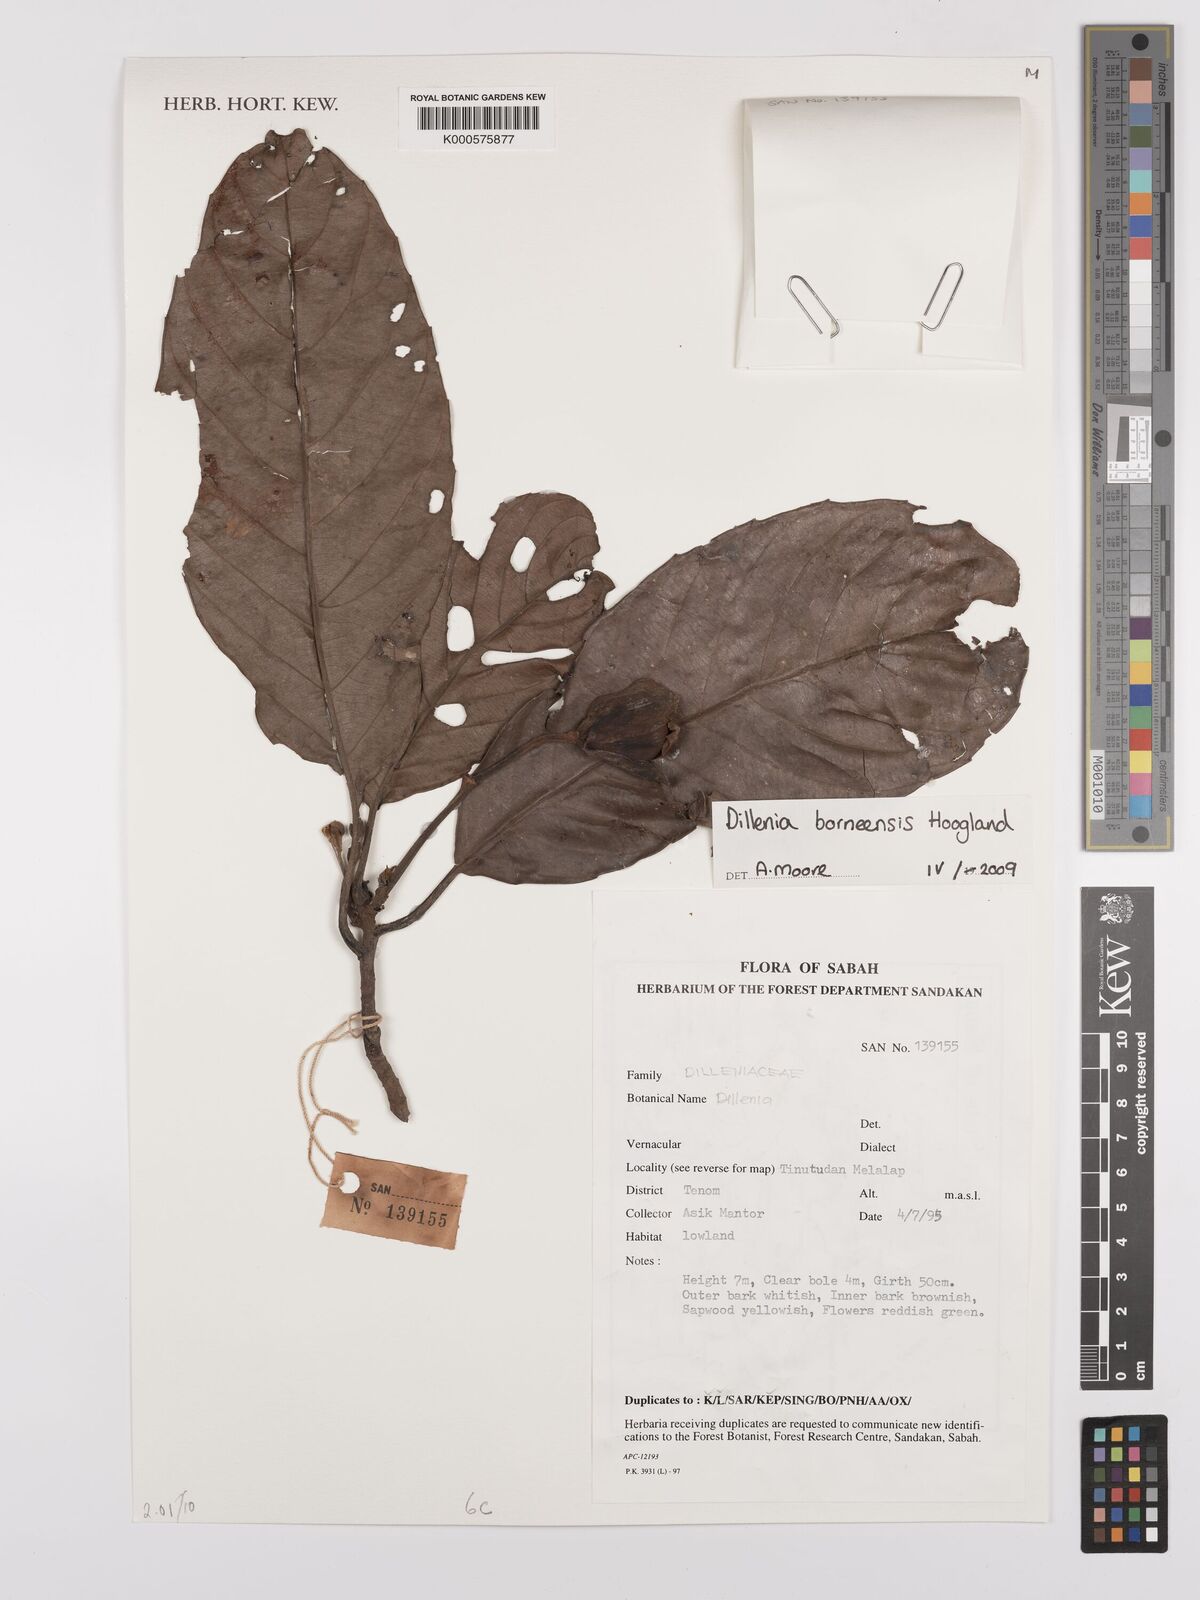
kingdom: Plantae
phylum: Tracheophyta
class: Magnoliopsida
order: Austrobaileyales
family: Schisandraceae
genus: Illicium
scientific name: Illicium
